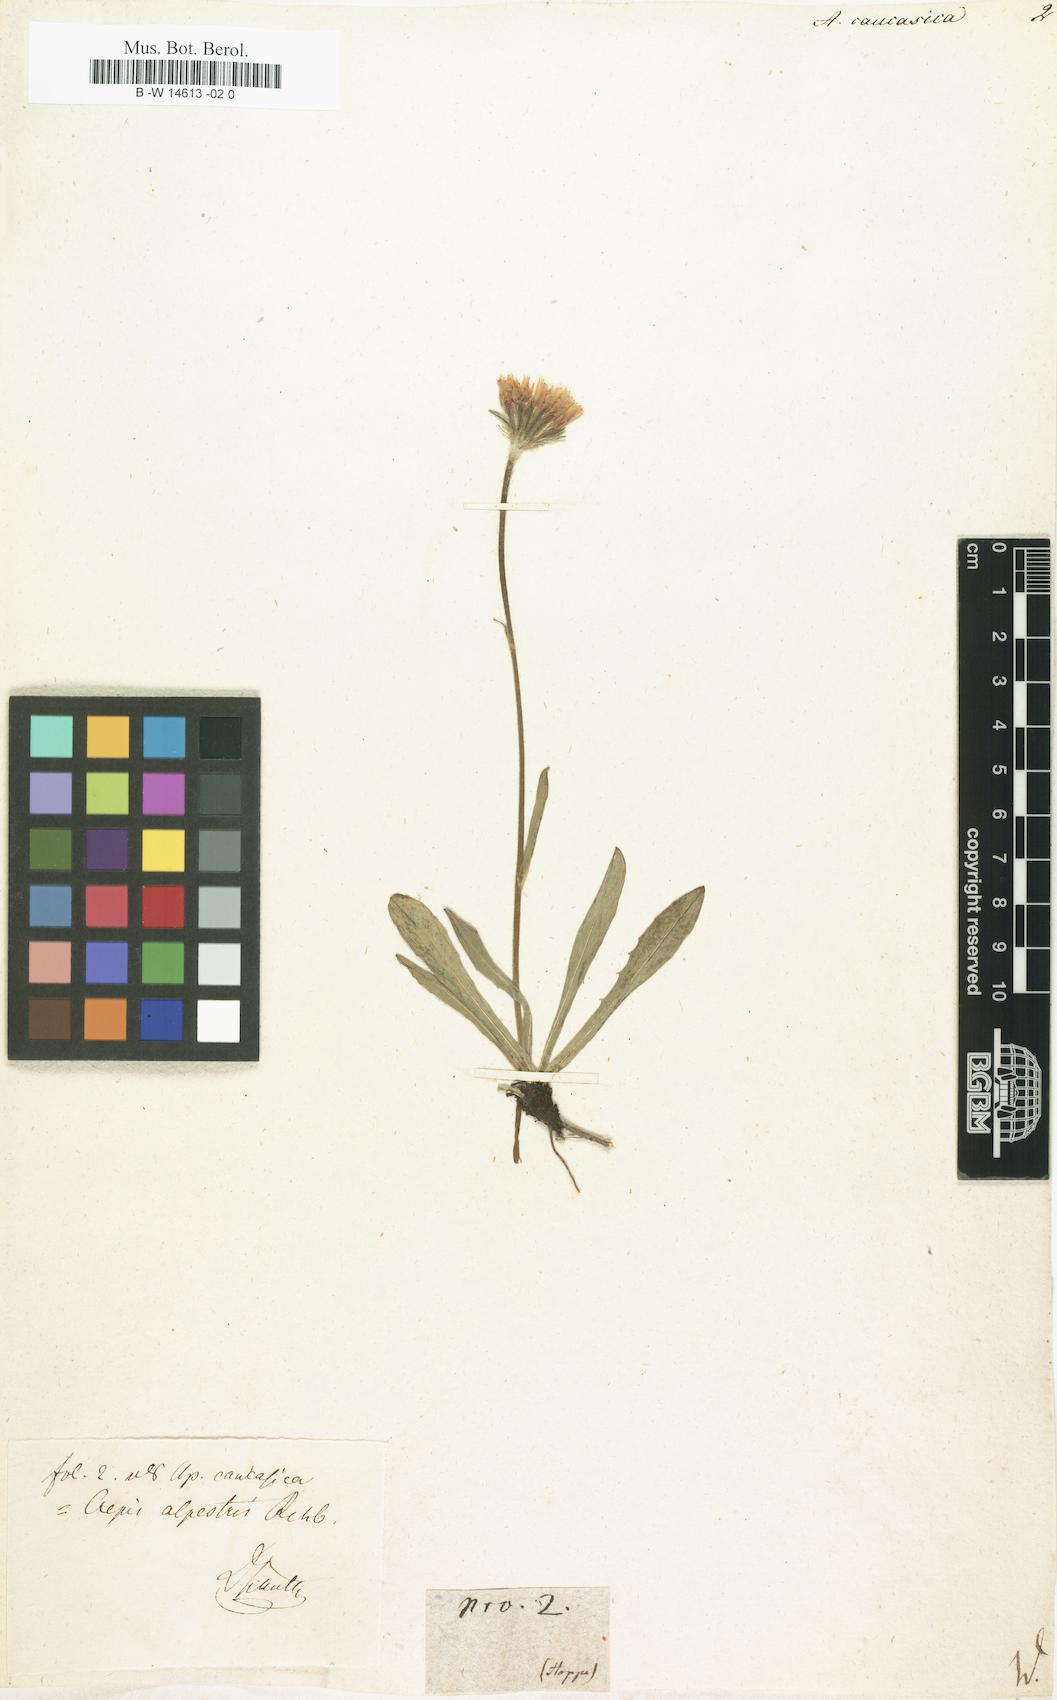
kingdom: Plantae
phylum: Tracheophyta
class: Magnoliopsida
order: Asterales
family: Asteraceae
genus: Leontodon
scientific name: Leontodon
